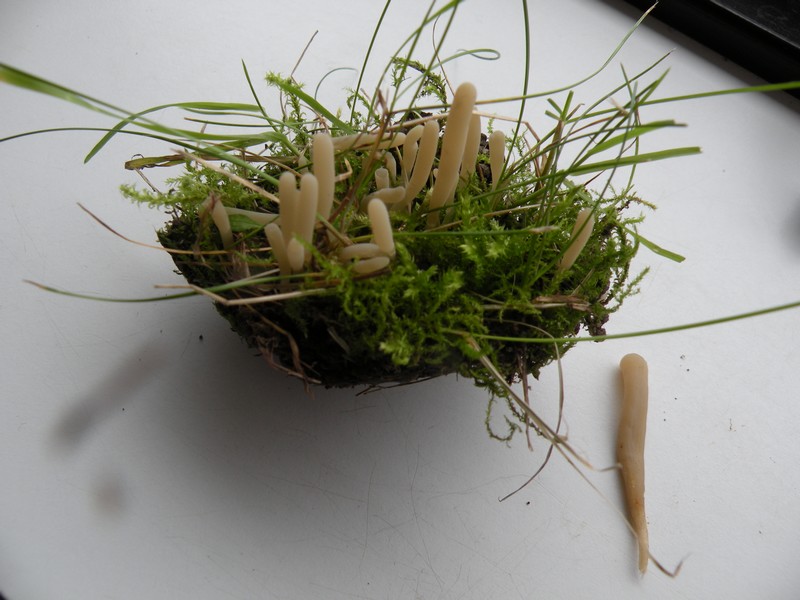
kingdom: Fungi
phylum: Basidiomycota
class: Agaricomycetes
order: Agaricales
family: Clavariaceae
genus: Clavaria
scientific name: Clavaria falcata
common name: hvid køllesvamp
